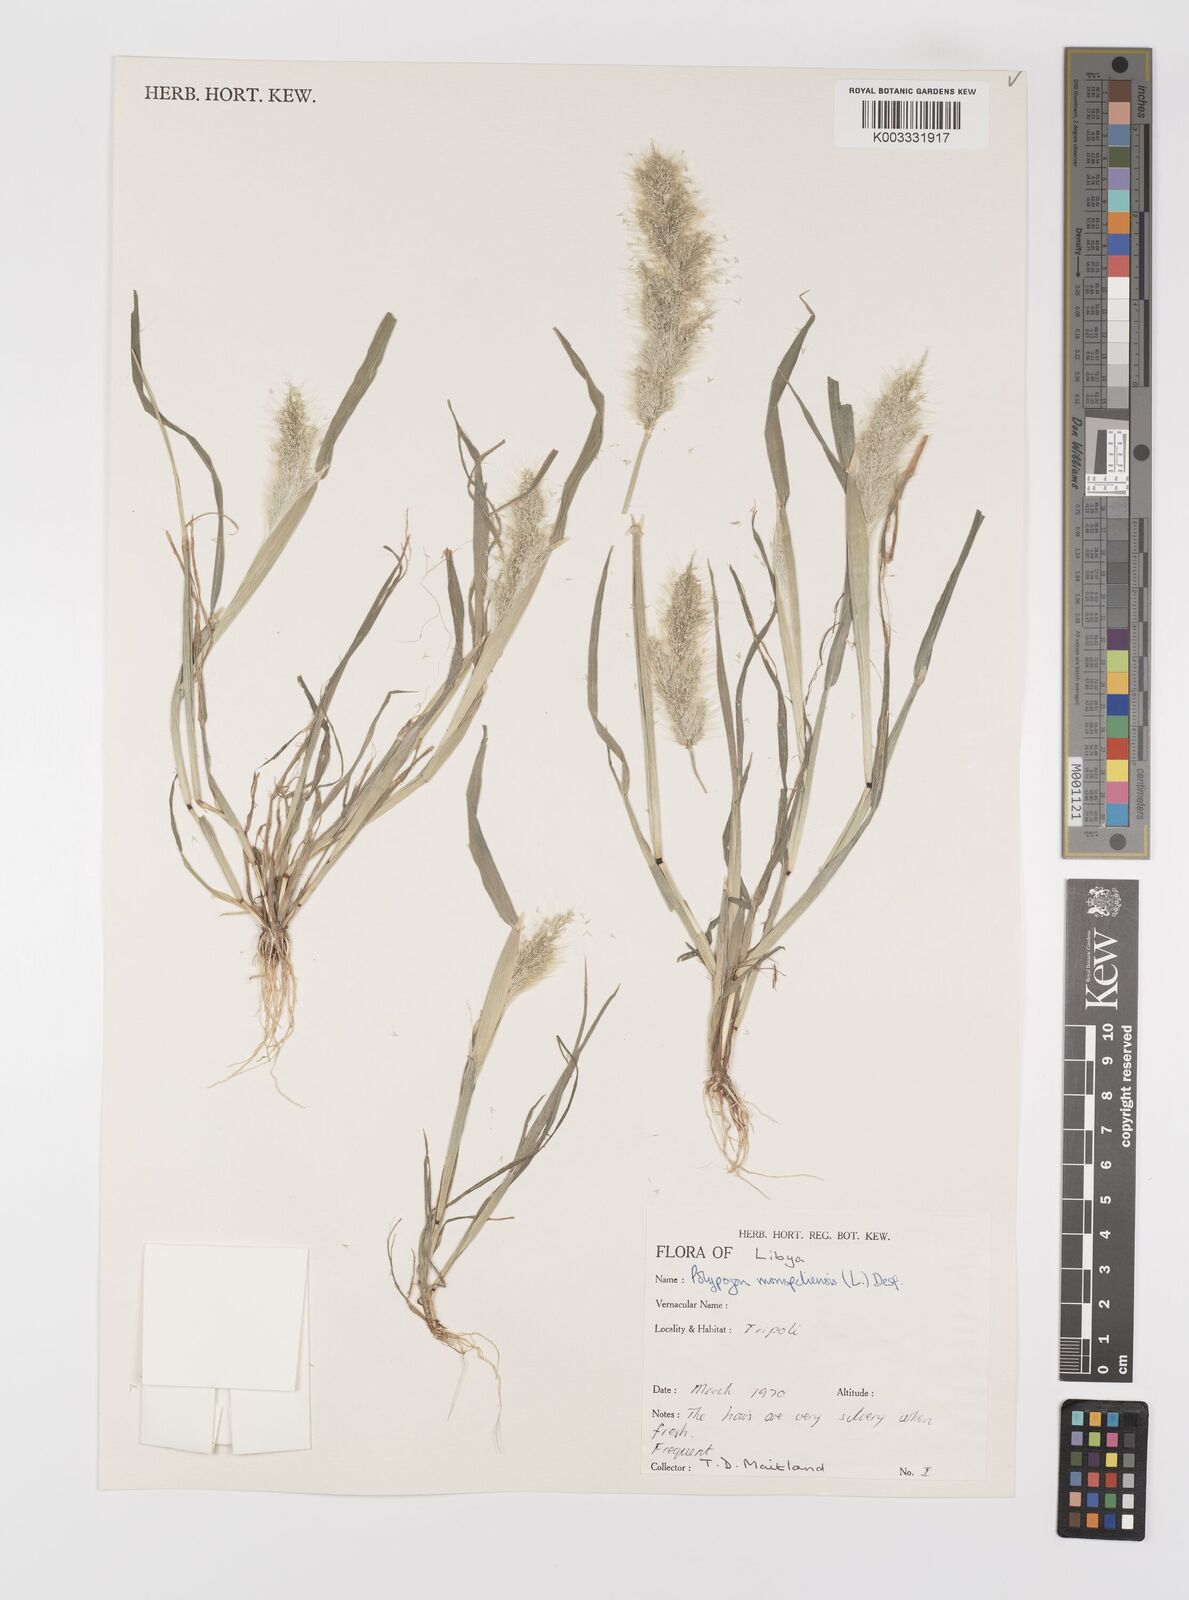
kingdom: Plantae
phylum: Tracheophyta
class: Liliopsida
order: Poales
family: Poaceae
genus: Polypogon
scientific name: Polypogon monspeliensis
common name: Annual rabbitsfoot grass
